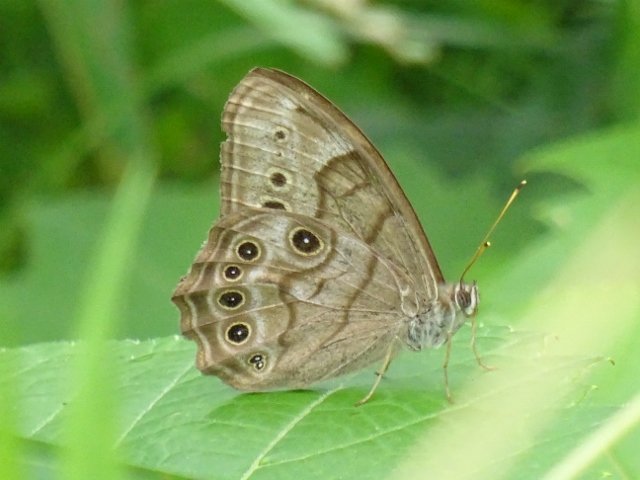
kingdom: Animalia
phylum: Arthropoda
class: Insecta
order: Lepidoptera
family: Nymphalidae
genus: Lethe
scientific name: Lethe anthedon
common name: Northern Pearly-Eye
